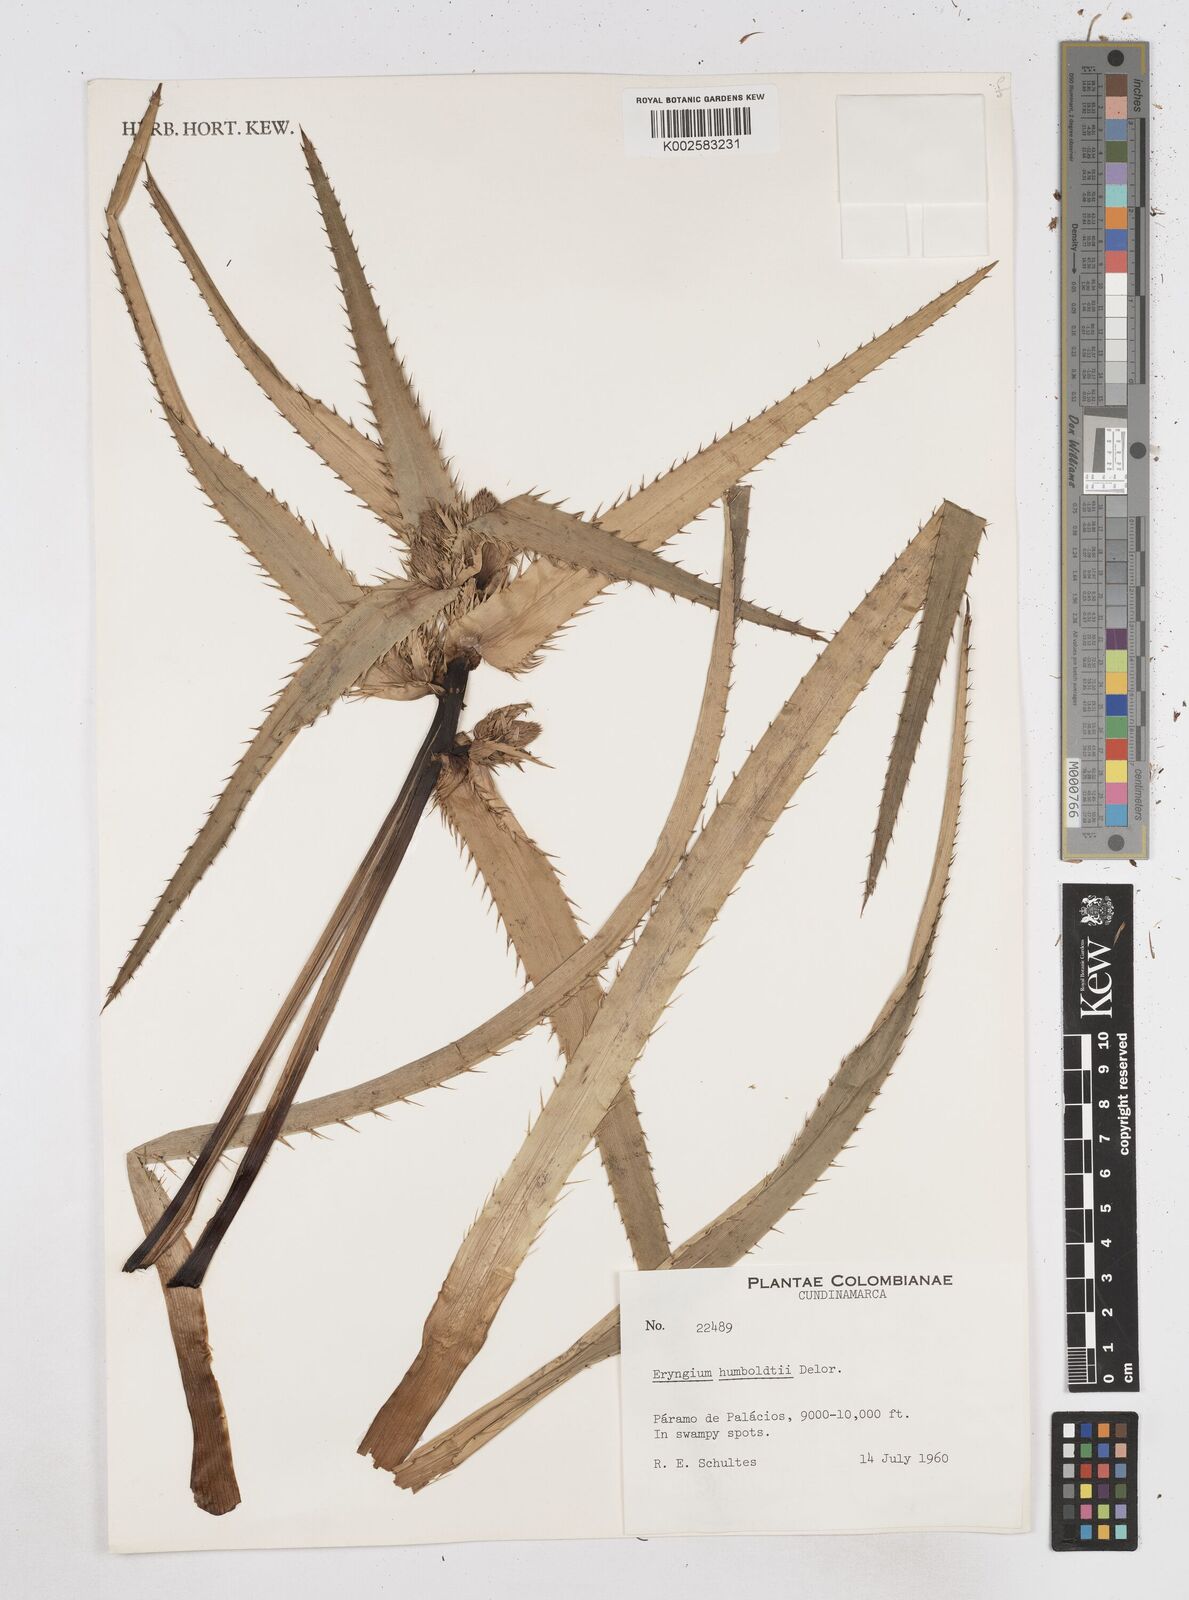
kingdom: Plantae
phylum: Tracheophyta
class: Magnoliopsida
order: Apiales
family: Apiaceae
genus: Eryngium
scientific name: Eryngium humboldtii
